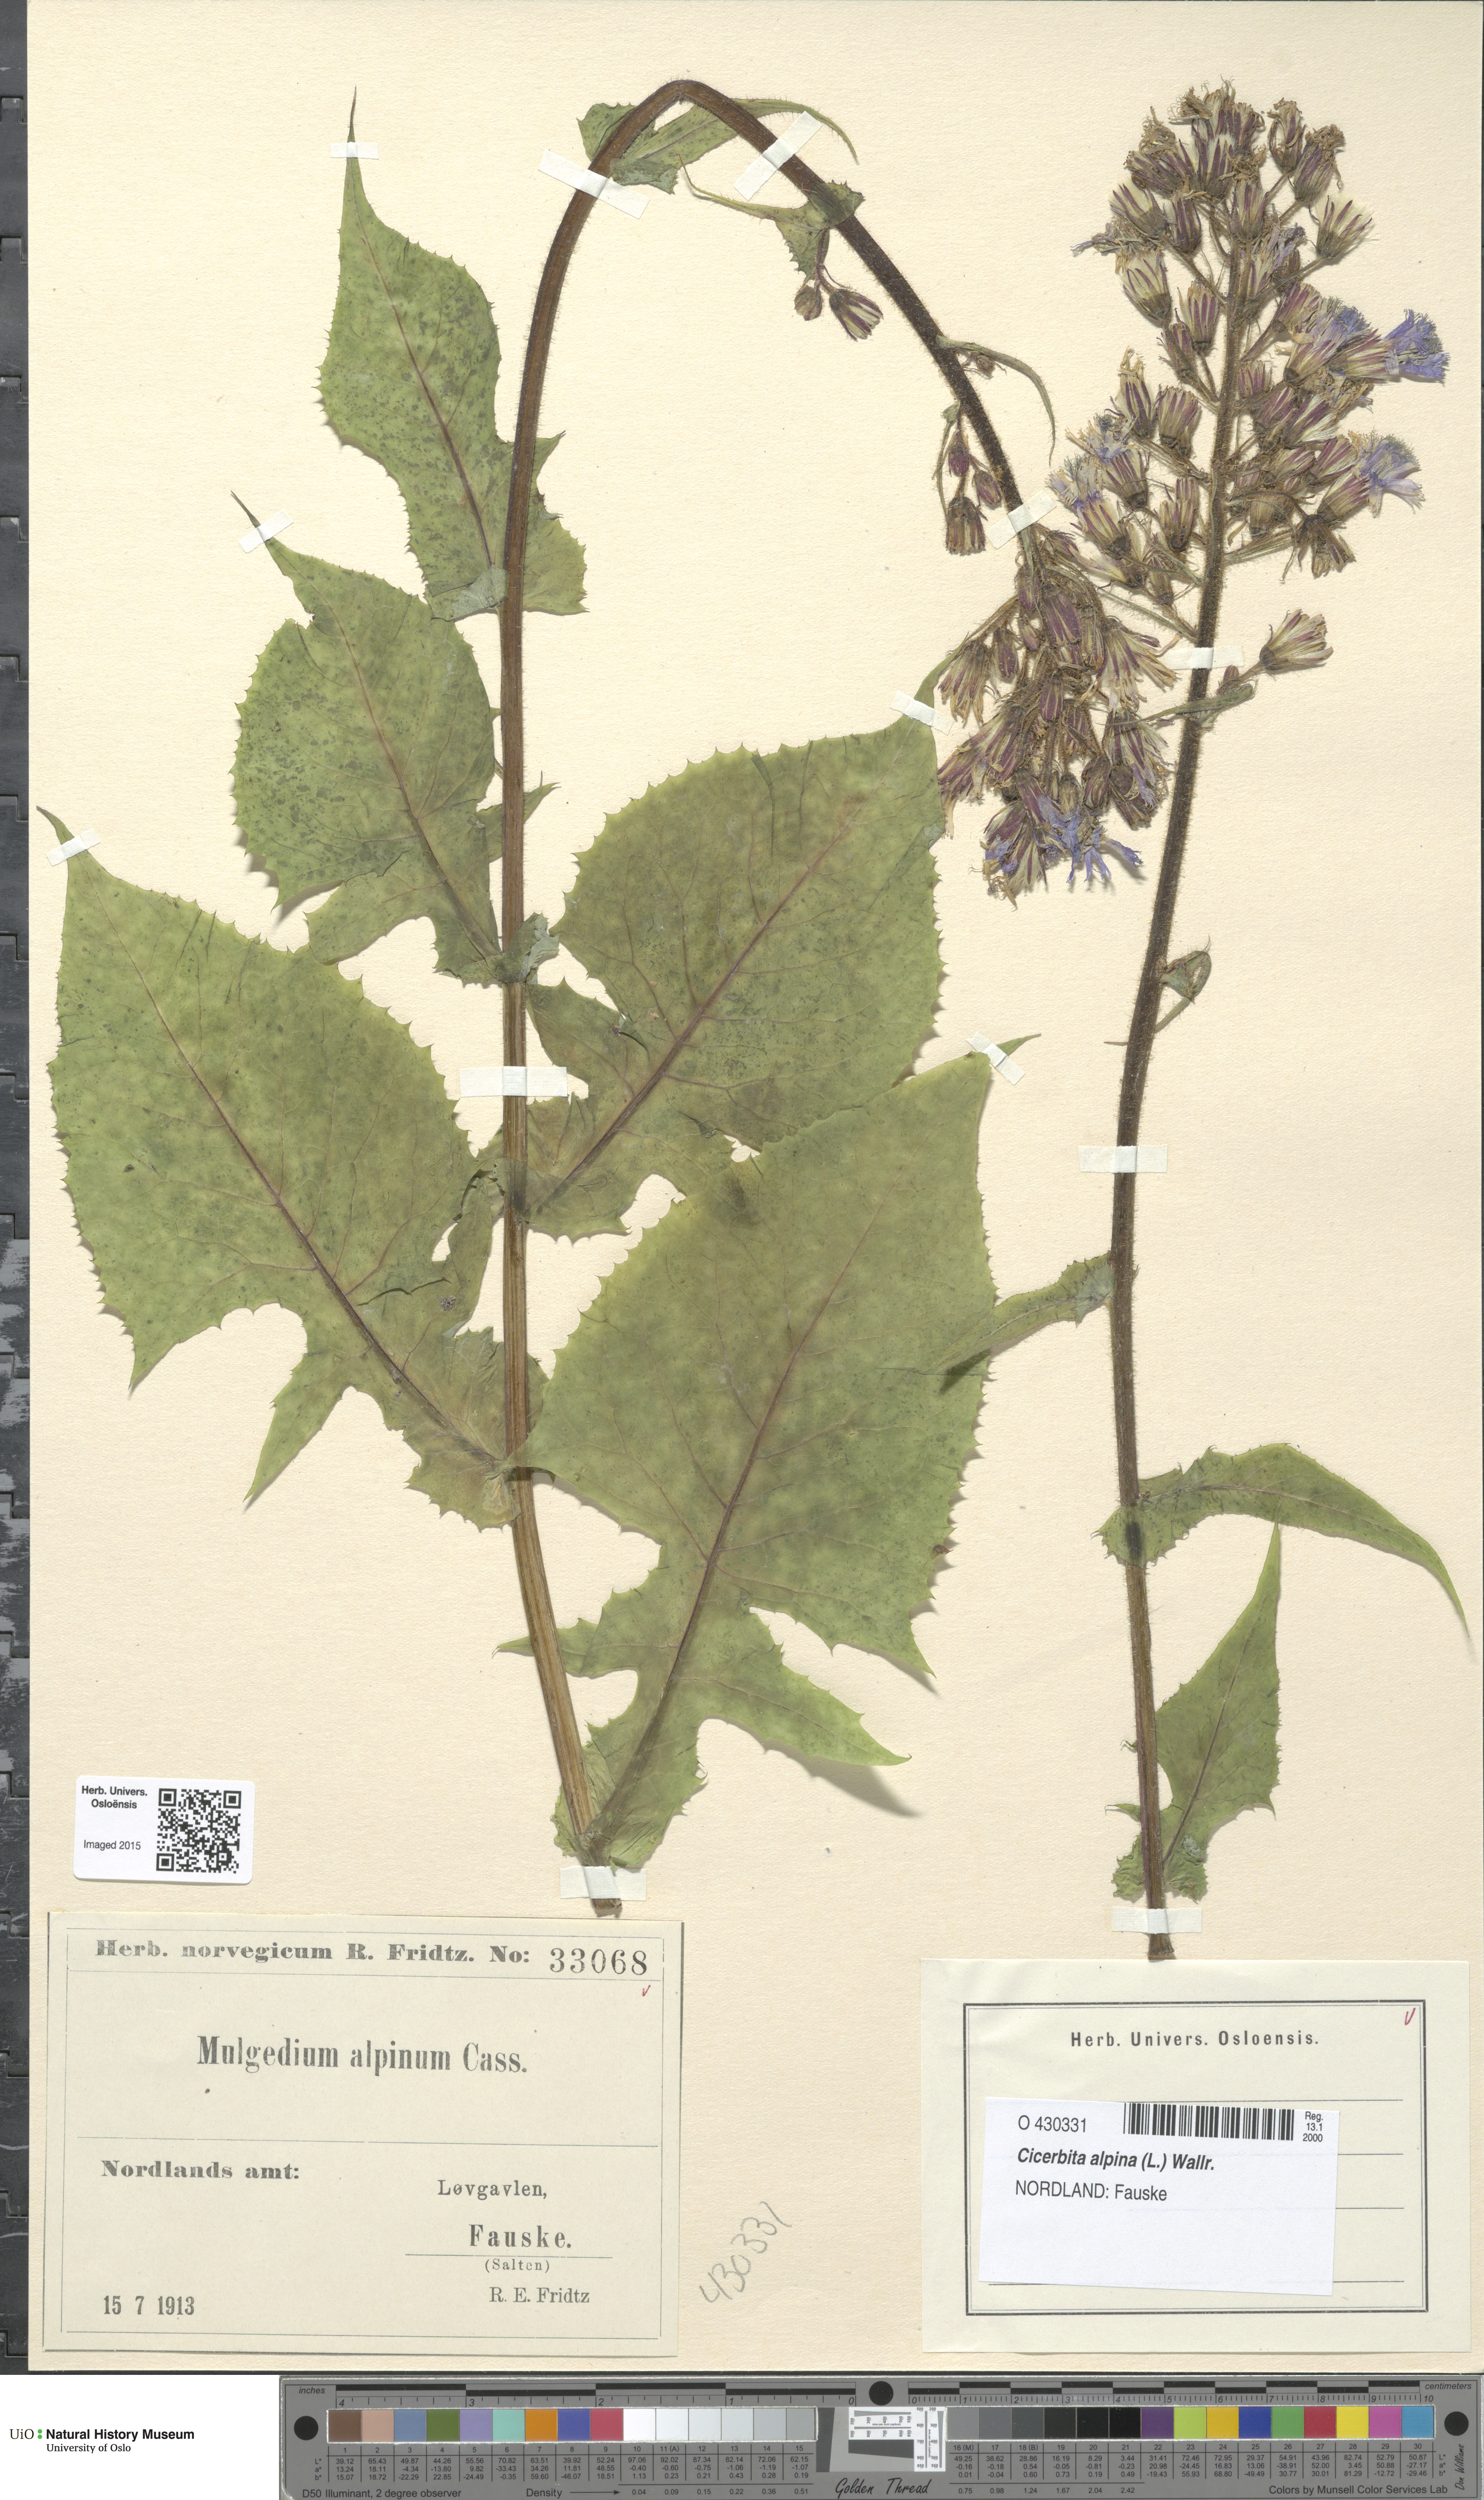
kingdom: Plantae
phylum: Tracheophyta
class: Magnoliopsida
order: Asterales
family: Asteraceae
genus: Cicerbita
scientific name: Cicerbita alpina
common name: Alpine blue-sow-thistle
